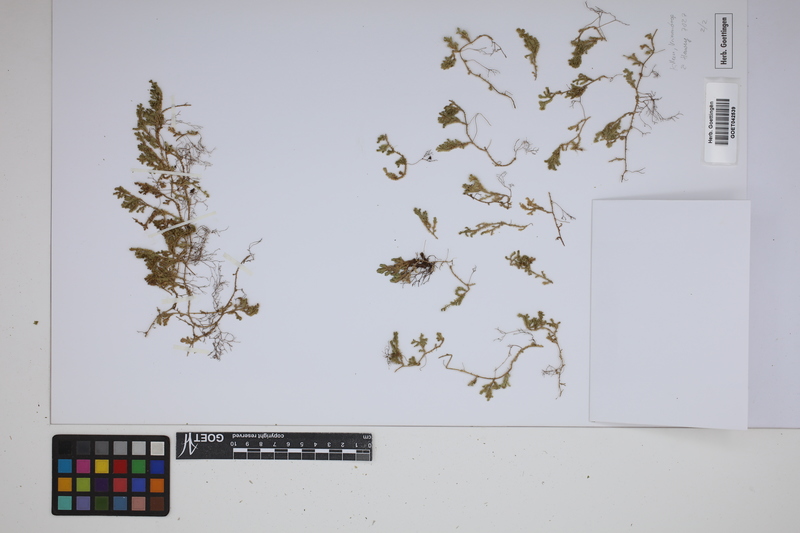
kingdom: Plantae
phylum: Tracheophyta
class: Lycopodiopsida
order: Selaginellales
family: Selaginellaceae
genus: Selaginella
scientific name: Selaginella marginata
